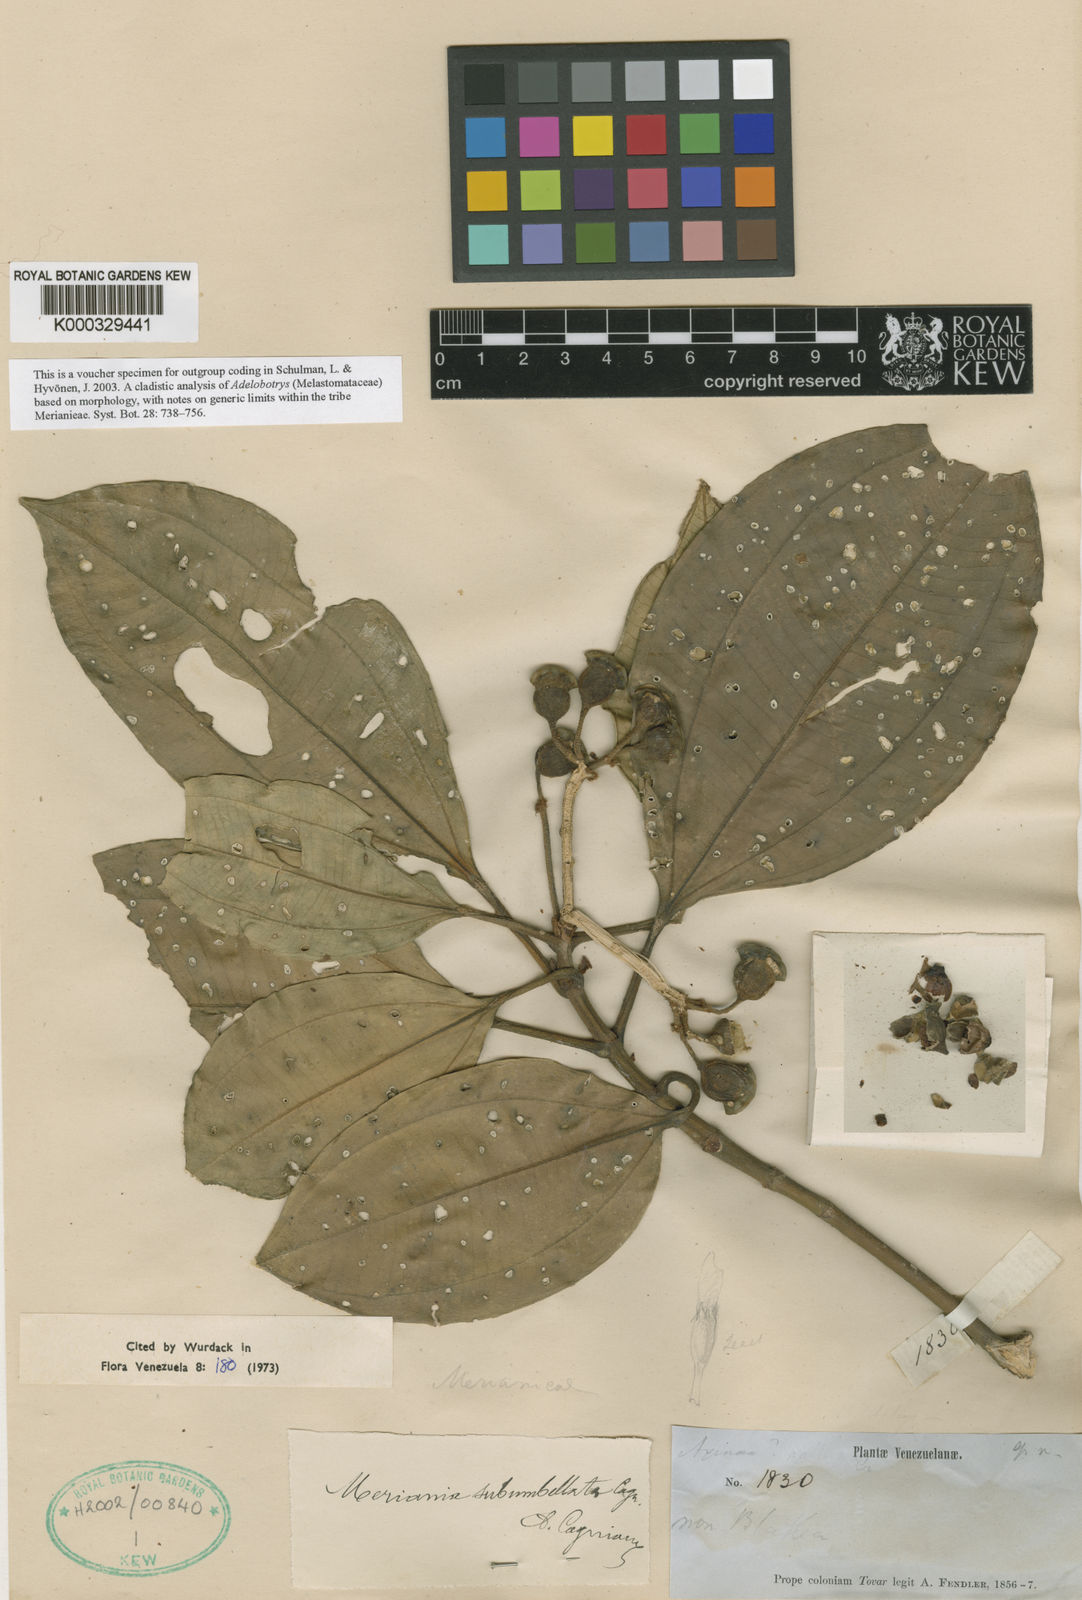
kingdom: Plantae
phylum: Tracheophyta
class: Magnoliopsida
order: Myrtales
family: Melastomataceae
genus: Meriania
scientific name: Meriania subumbellata
